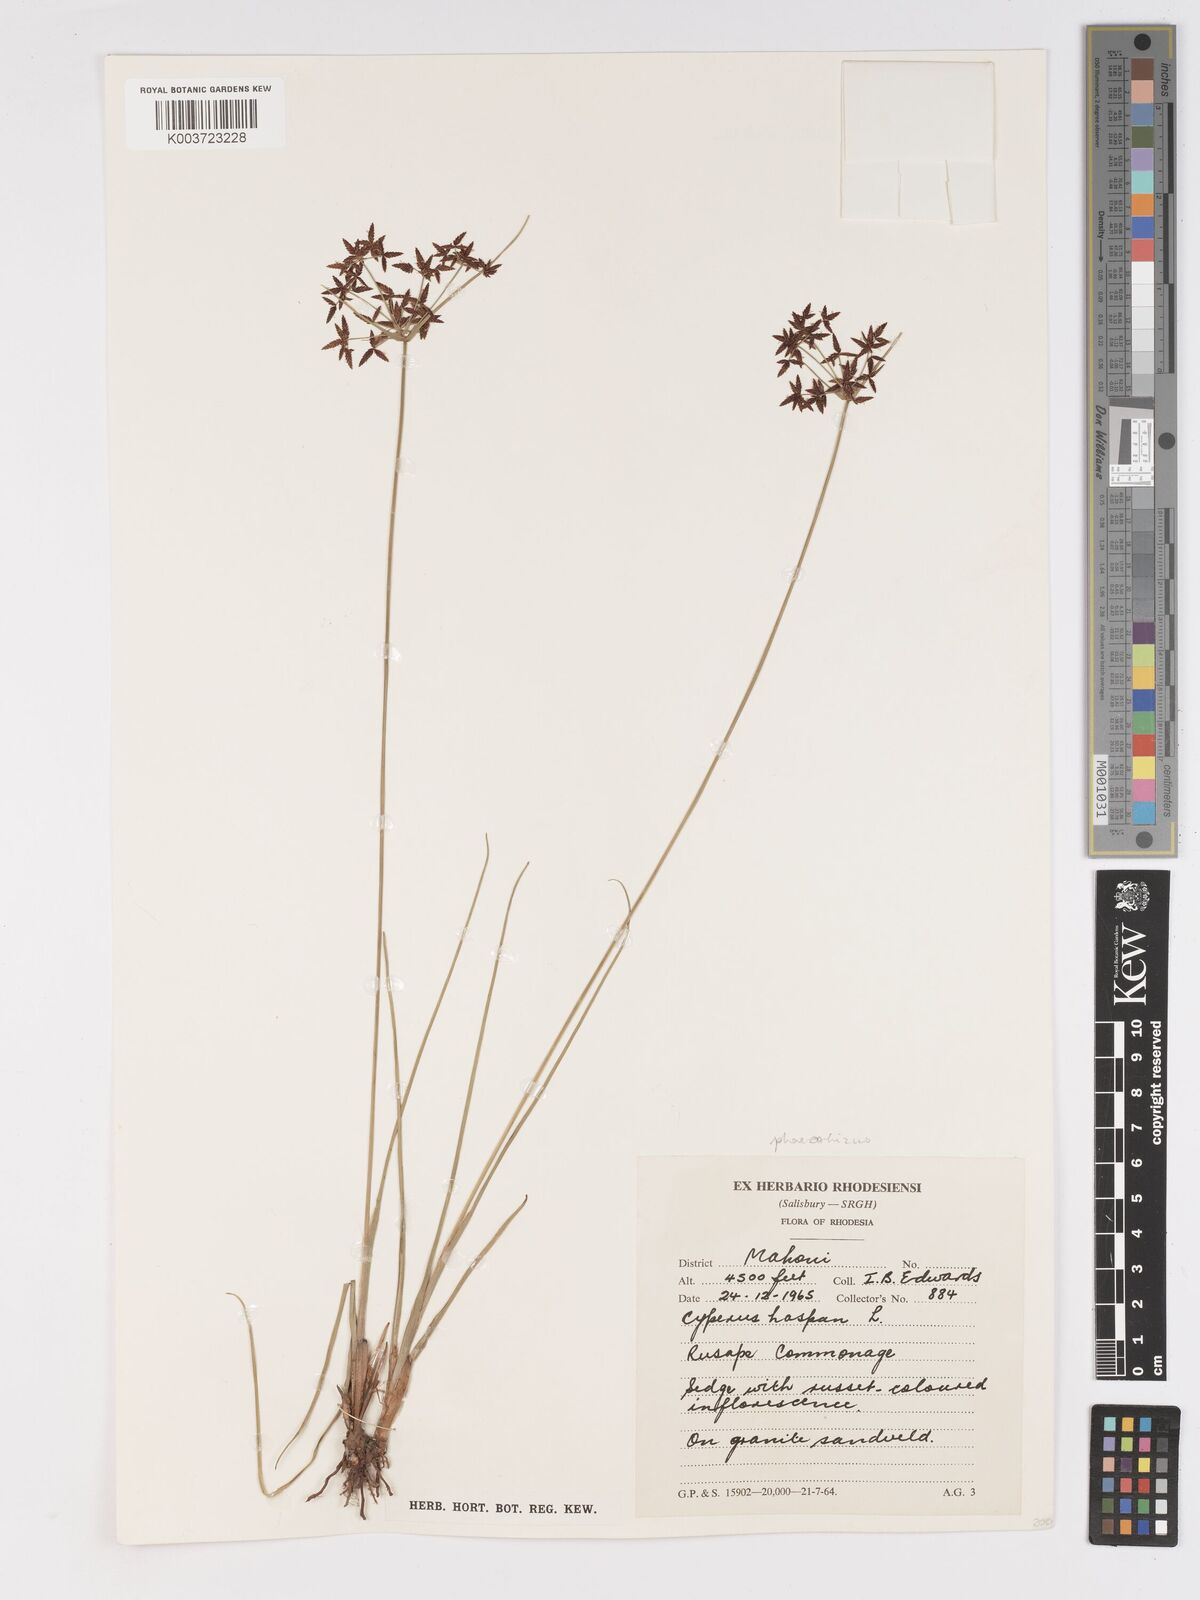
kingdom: Plantae
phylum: Tracheophyta
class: Liliopsida
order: Poales
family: Cyperaceae
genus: Cyperus
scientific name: Cyperus haspan
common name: Haspan flatsedge
